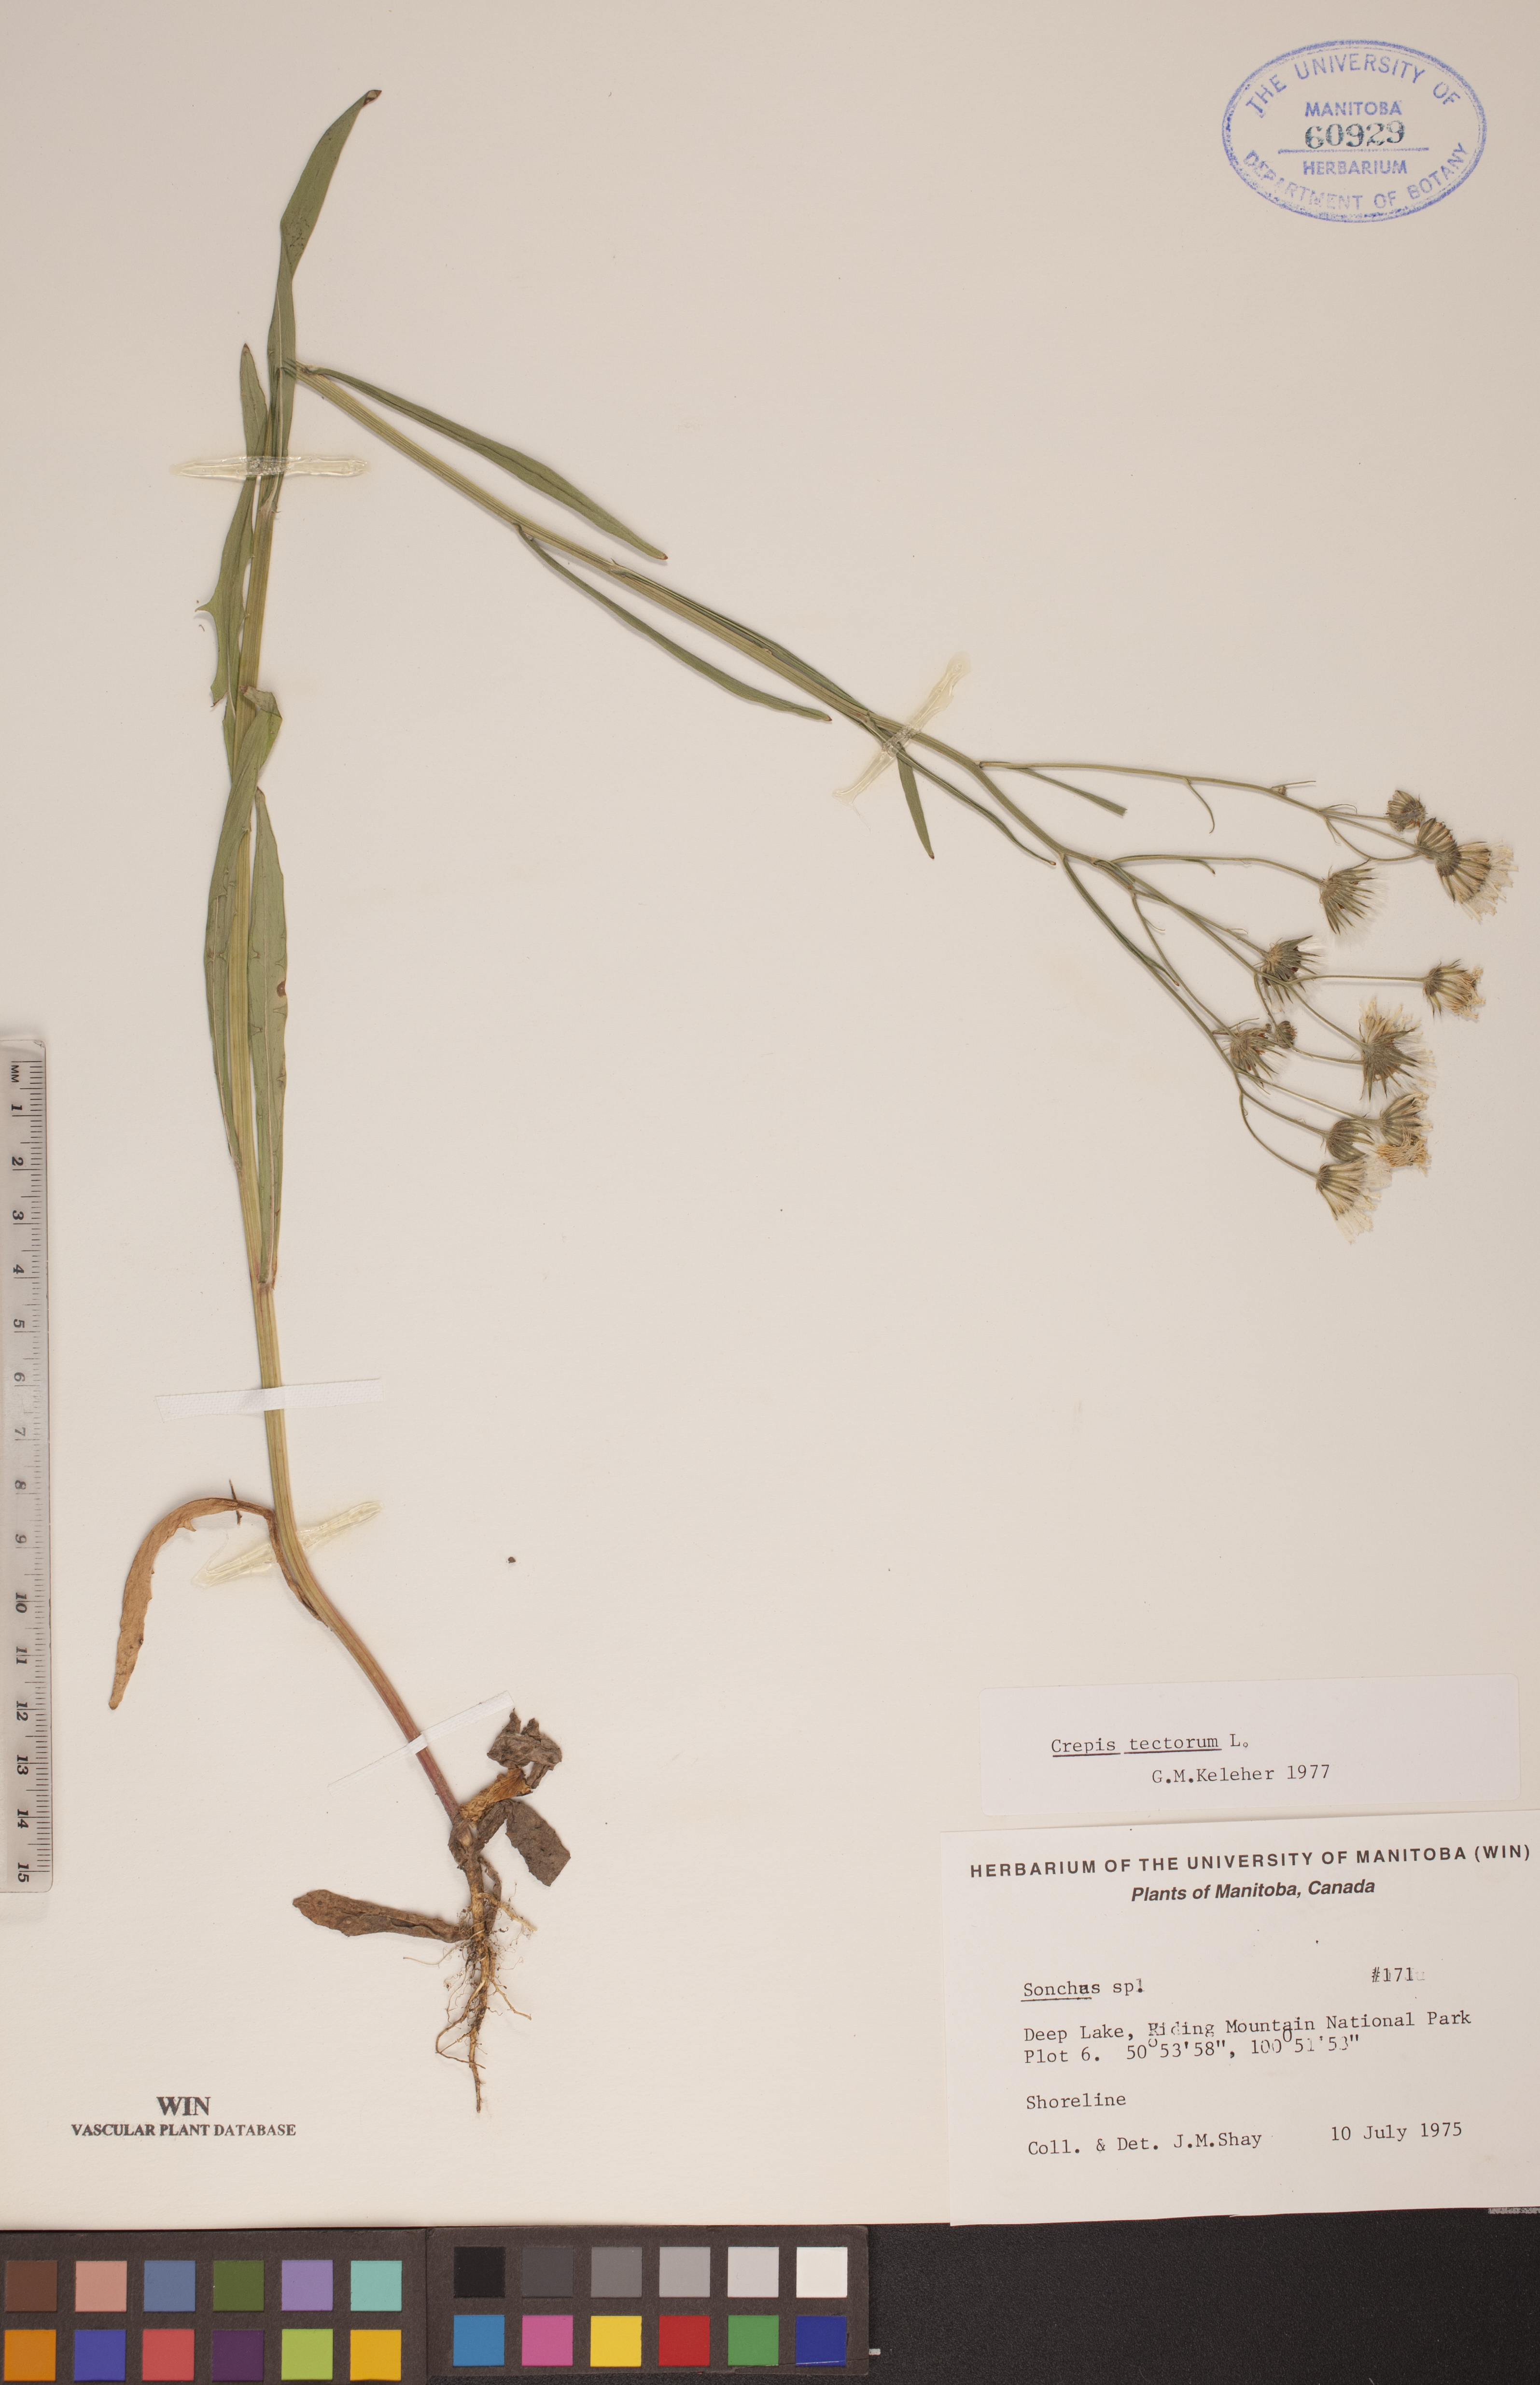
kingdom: Plantae
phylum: Tracheophyta
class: Magnoliopsida
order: Asterales
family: Asteraceae
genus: Crepis
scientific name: Crepis tectorum
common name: Narrow-leaved hawk's-beard
